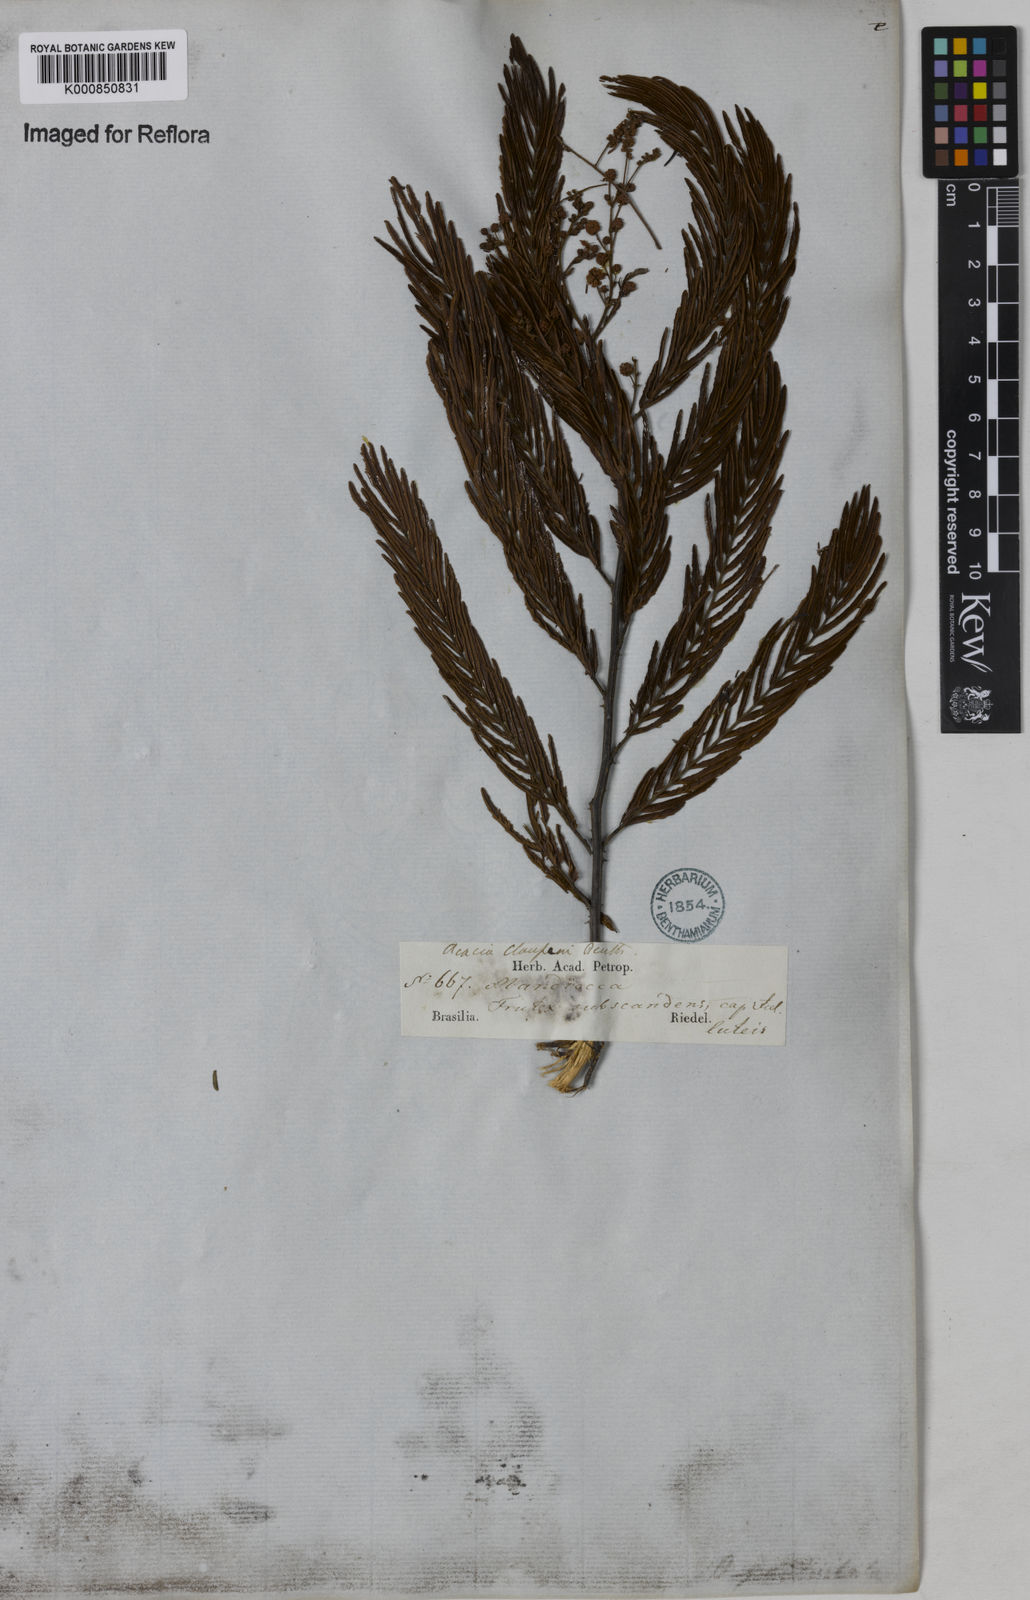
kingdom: Plantae
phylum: Tracheophyta
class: Magnoliopsida
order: Fabales
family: Fabaceae
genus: Senegalia
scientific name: Senegalia tenuifolia
